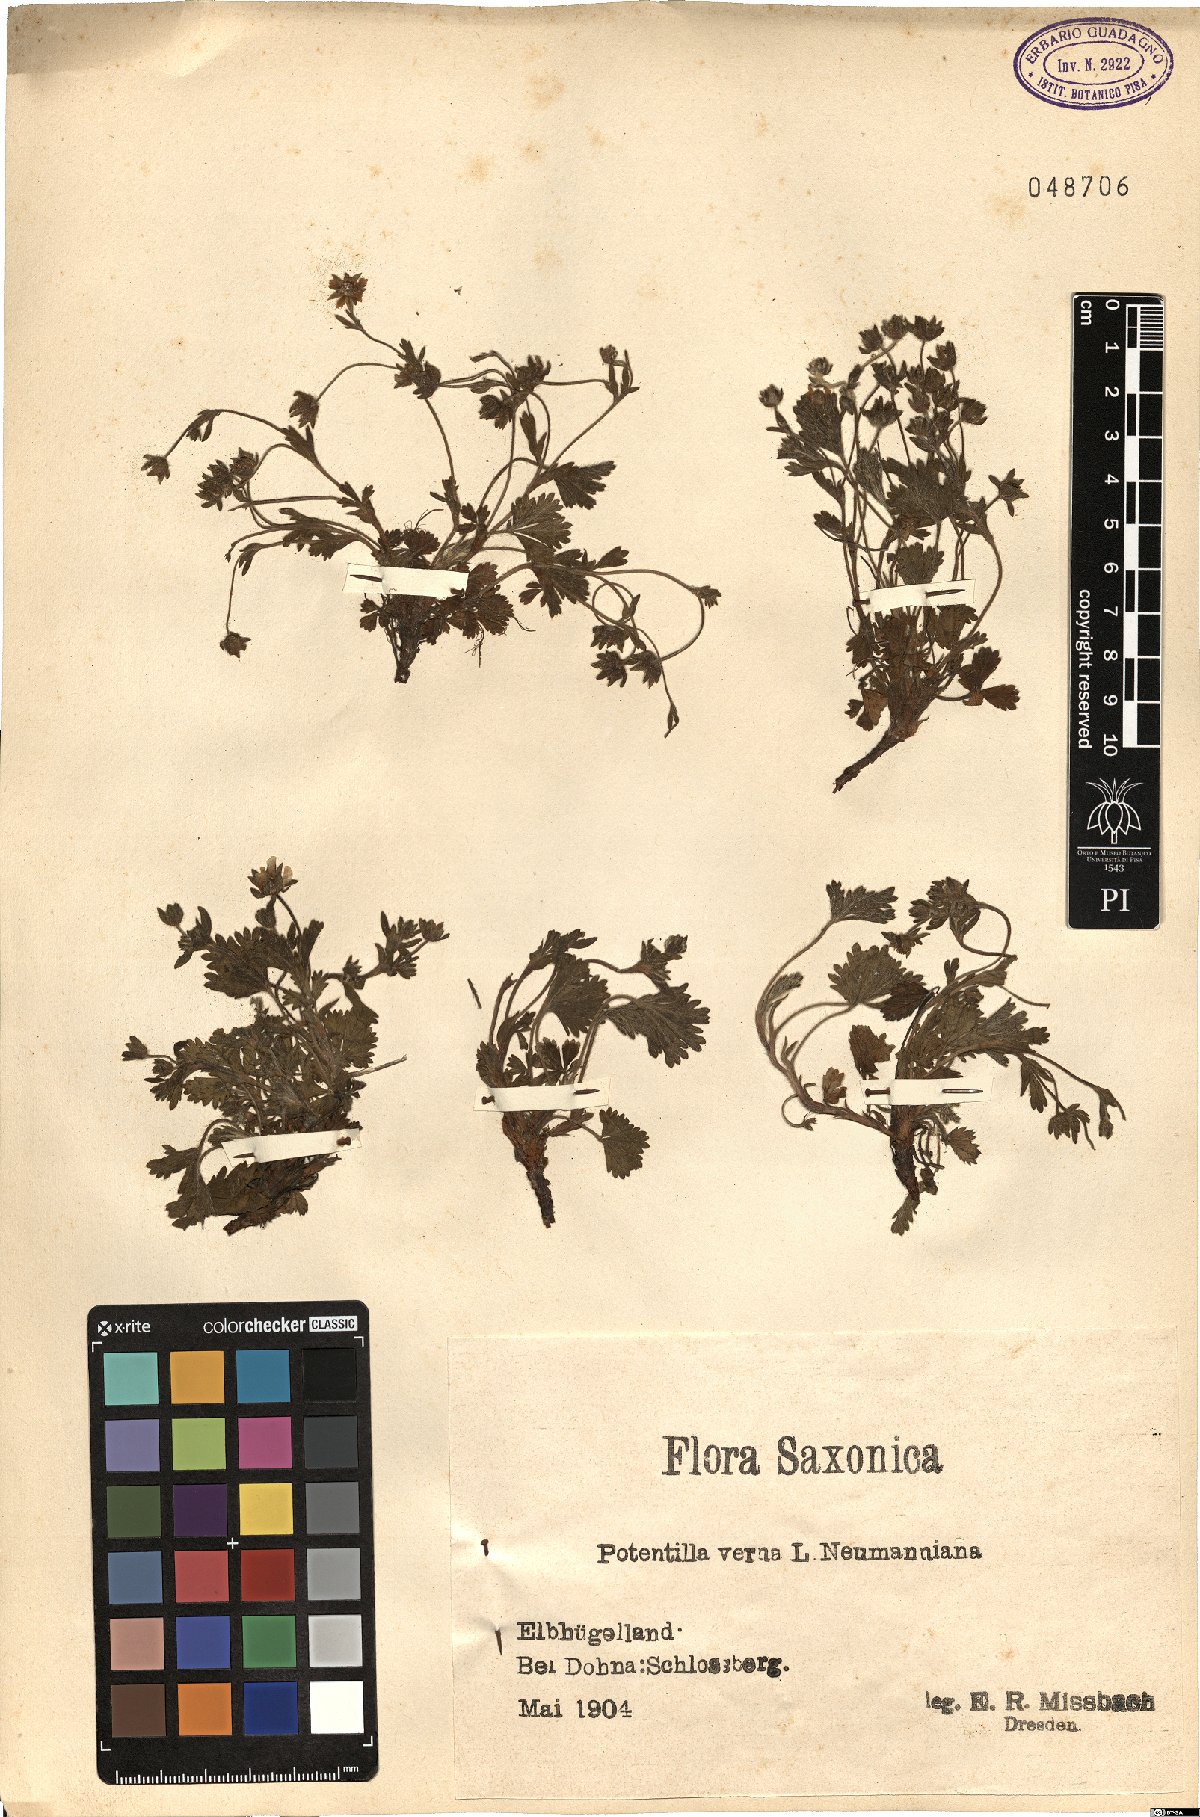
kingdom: Plantae
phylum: Tracheophyta
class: Magnoliopsida
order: Rosales
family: Rosaceae
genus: Potentilla
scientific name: Potentilla pusilla
